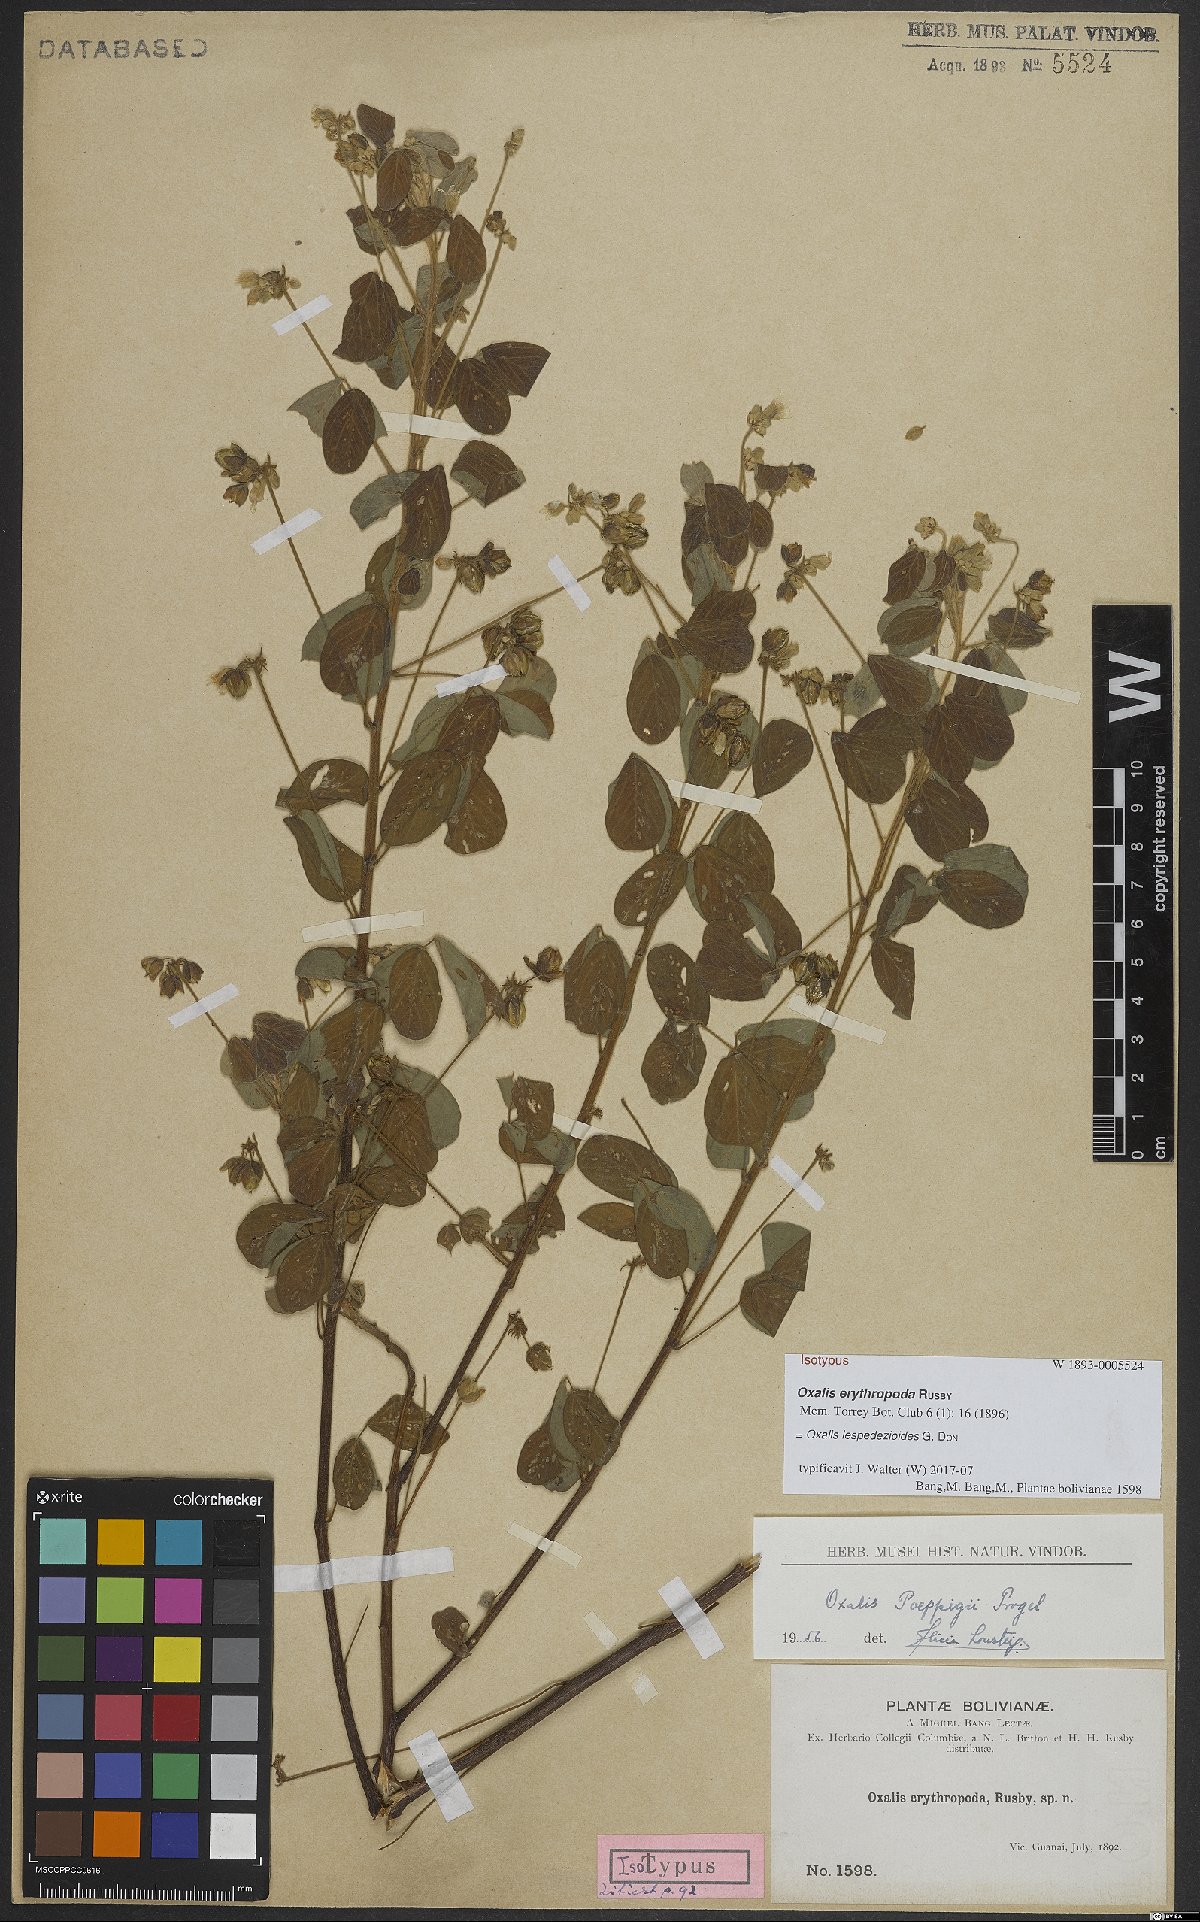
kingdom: Plantae
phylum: Tracheophyta
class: Magnoliopsida
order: Oxalidales
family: Oxalidaceae
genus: Oxalis
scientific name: Oxalis lespedezioides
